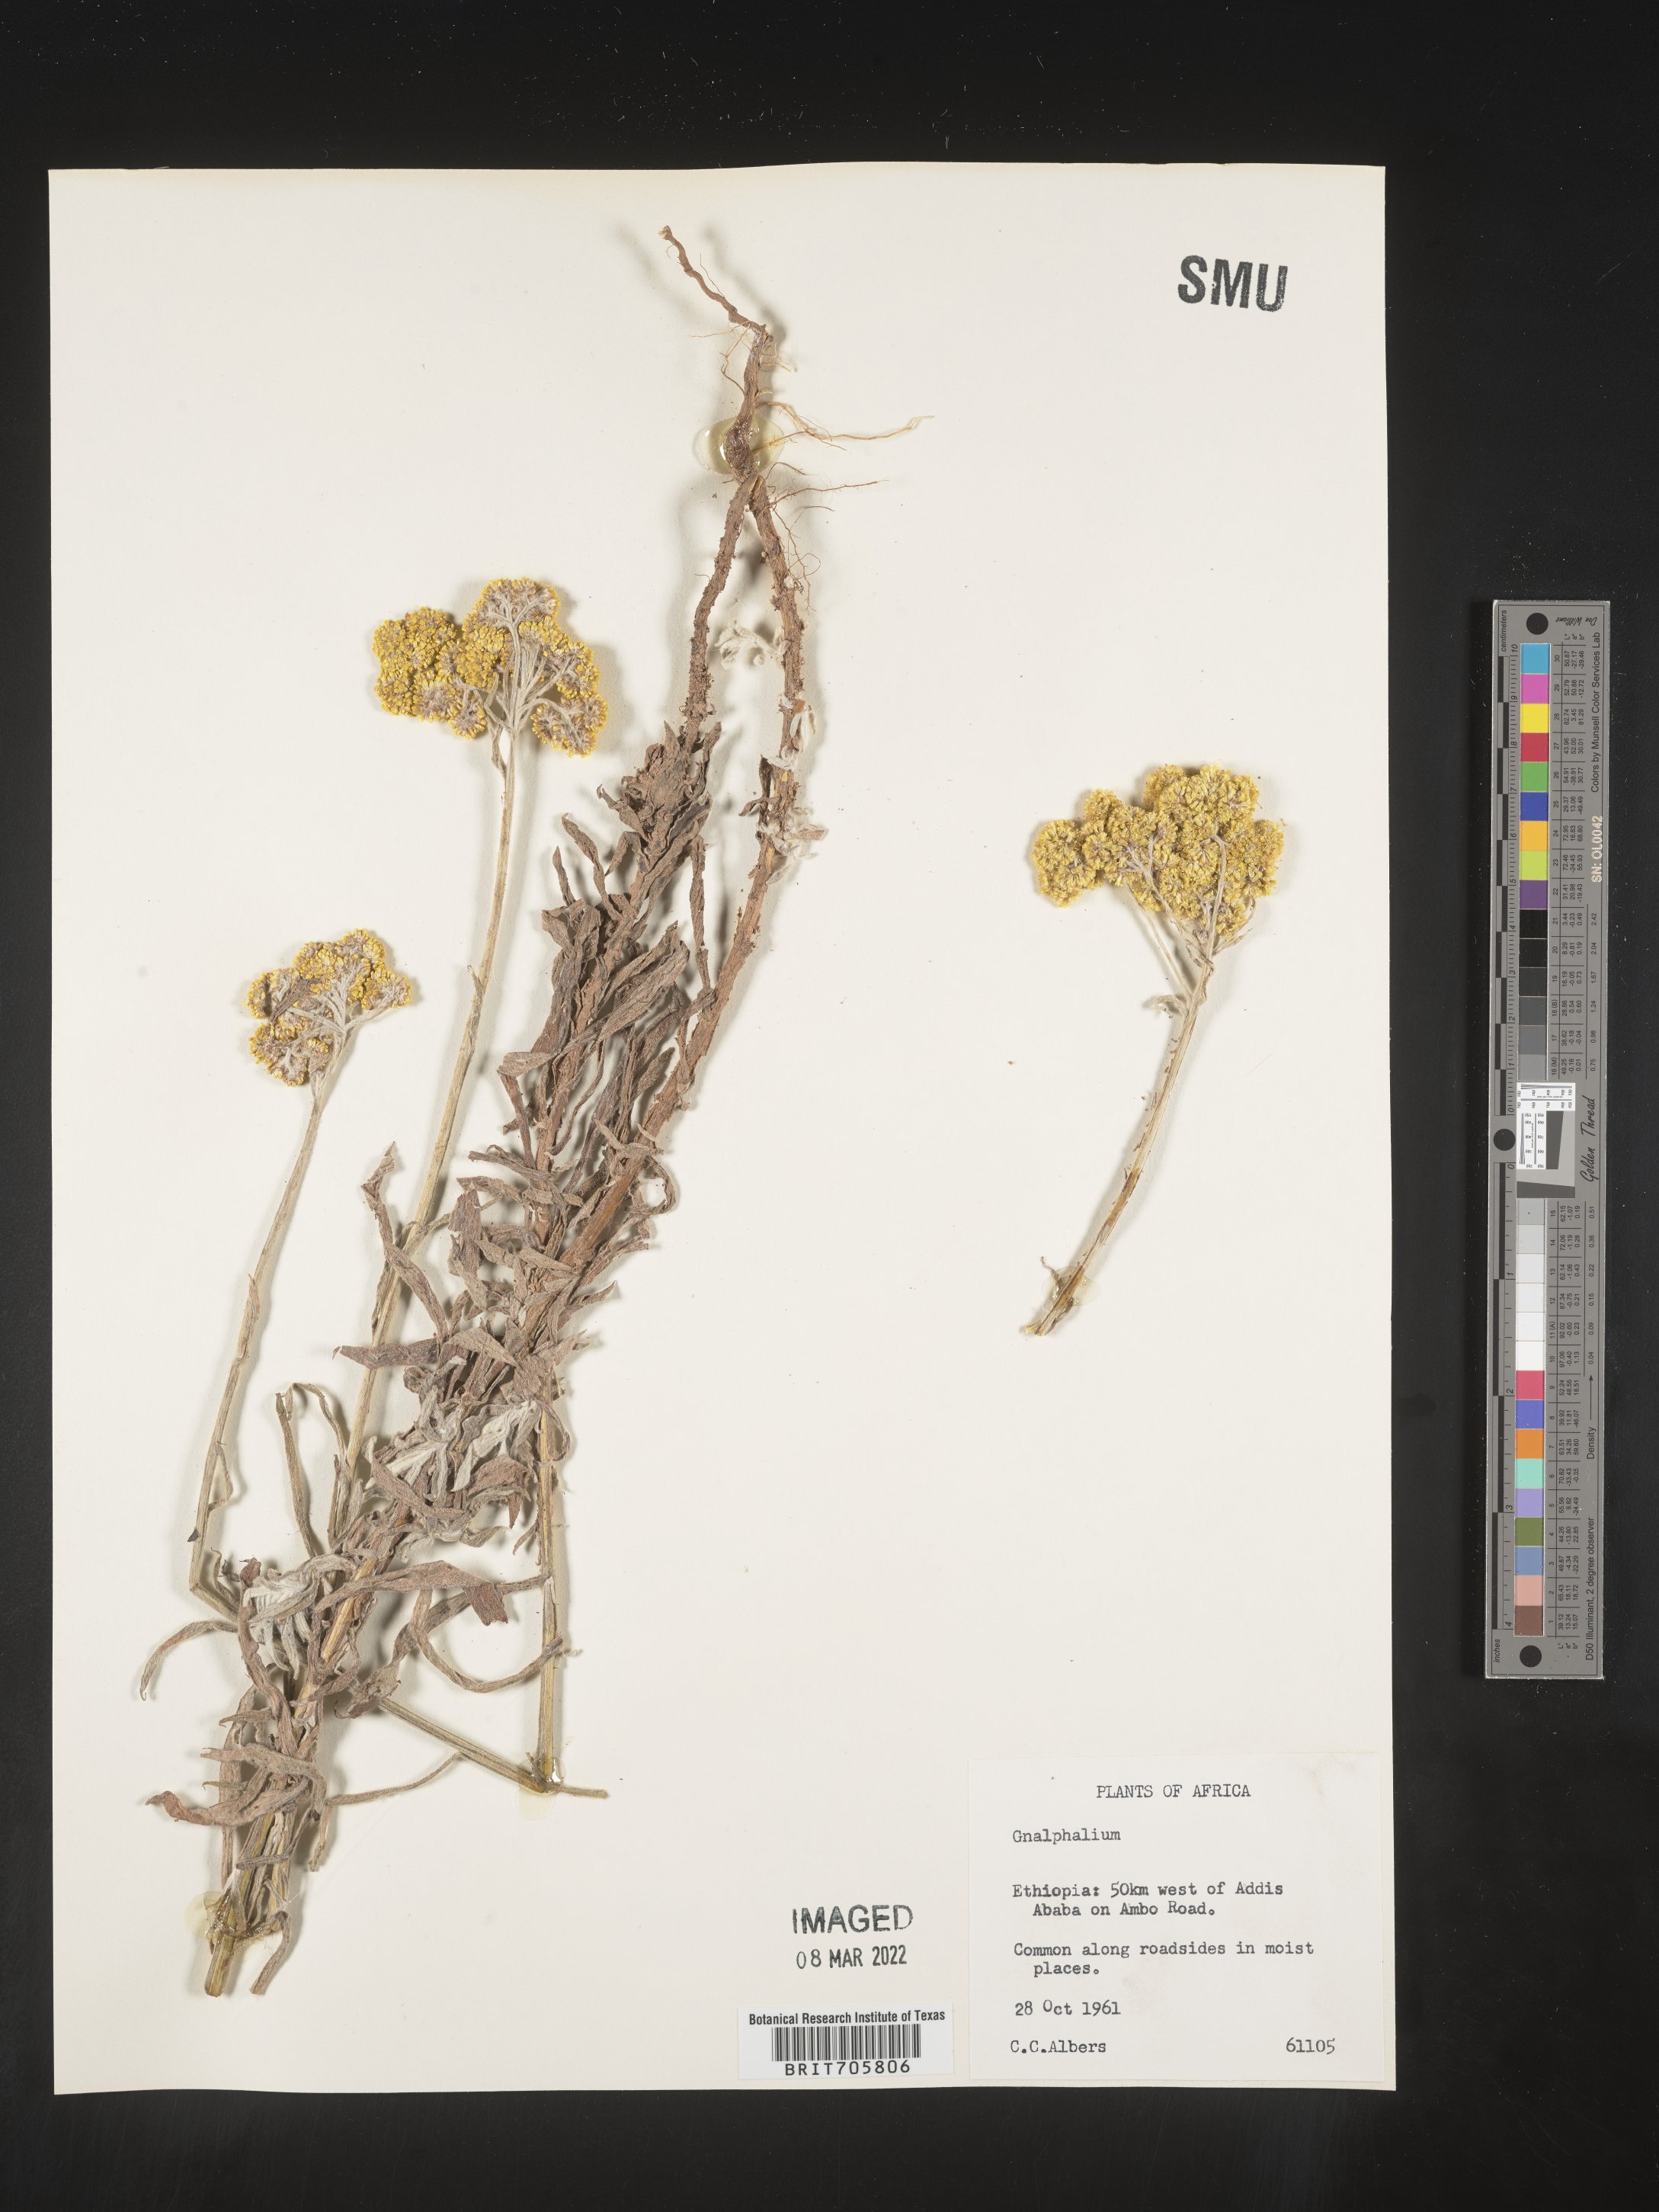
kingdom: Plantae
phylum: Tracheophyta
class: Magnoliopsida
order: Asterales
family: Asteraceae
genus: Pseudognaphalium
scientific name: Pseudognaphalium
